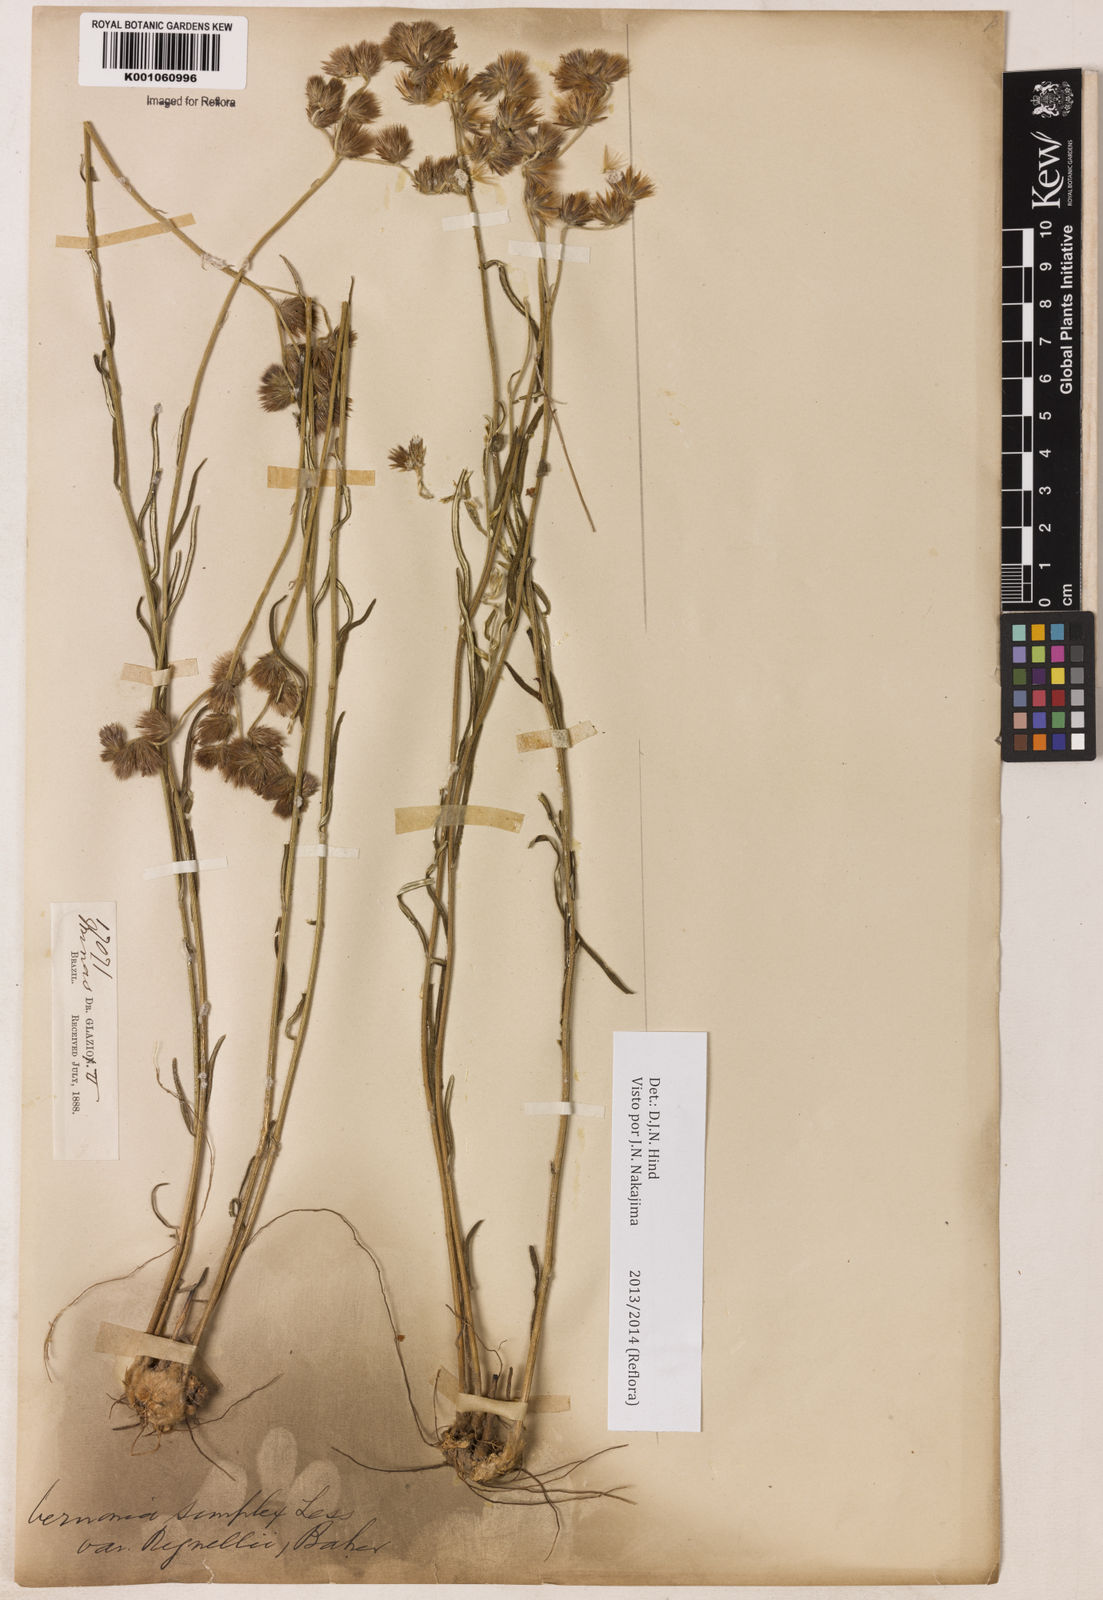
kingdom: Plantae
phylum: Tracheophyta
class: Magnoliopsida
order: Asterales
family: Asteraceae
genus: Chrysolaena
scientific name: Chrysolaena simplex
